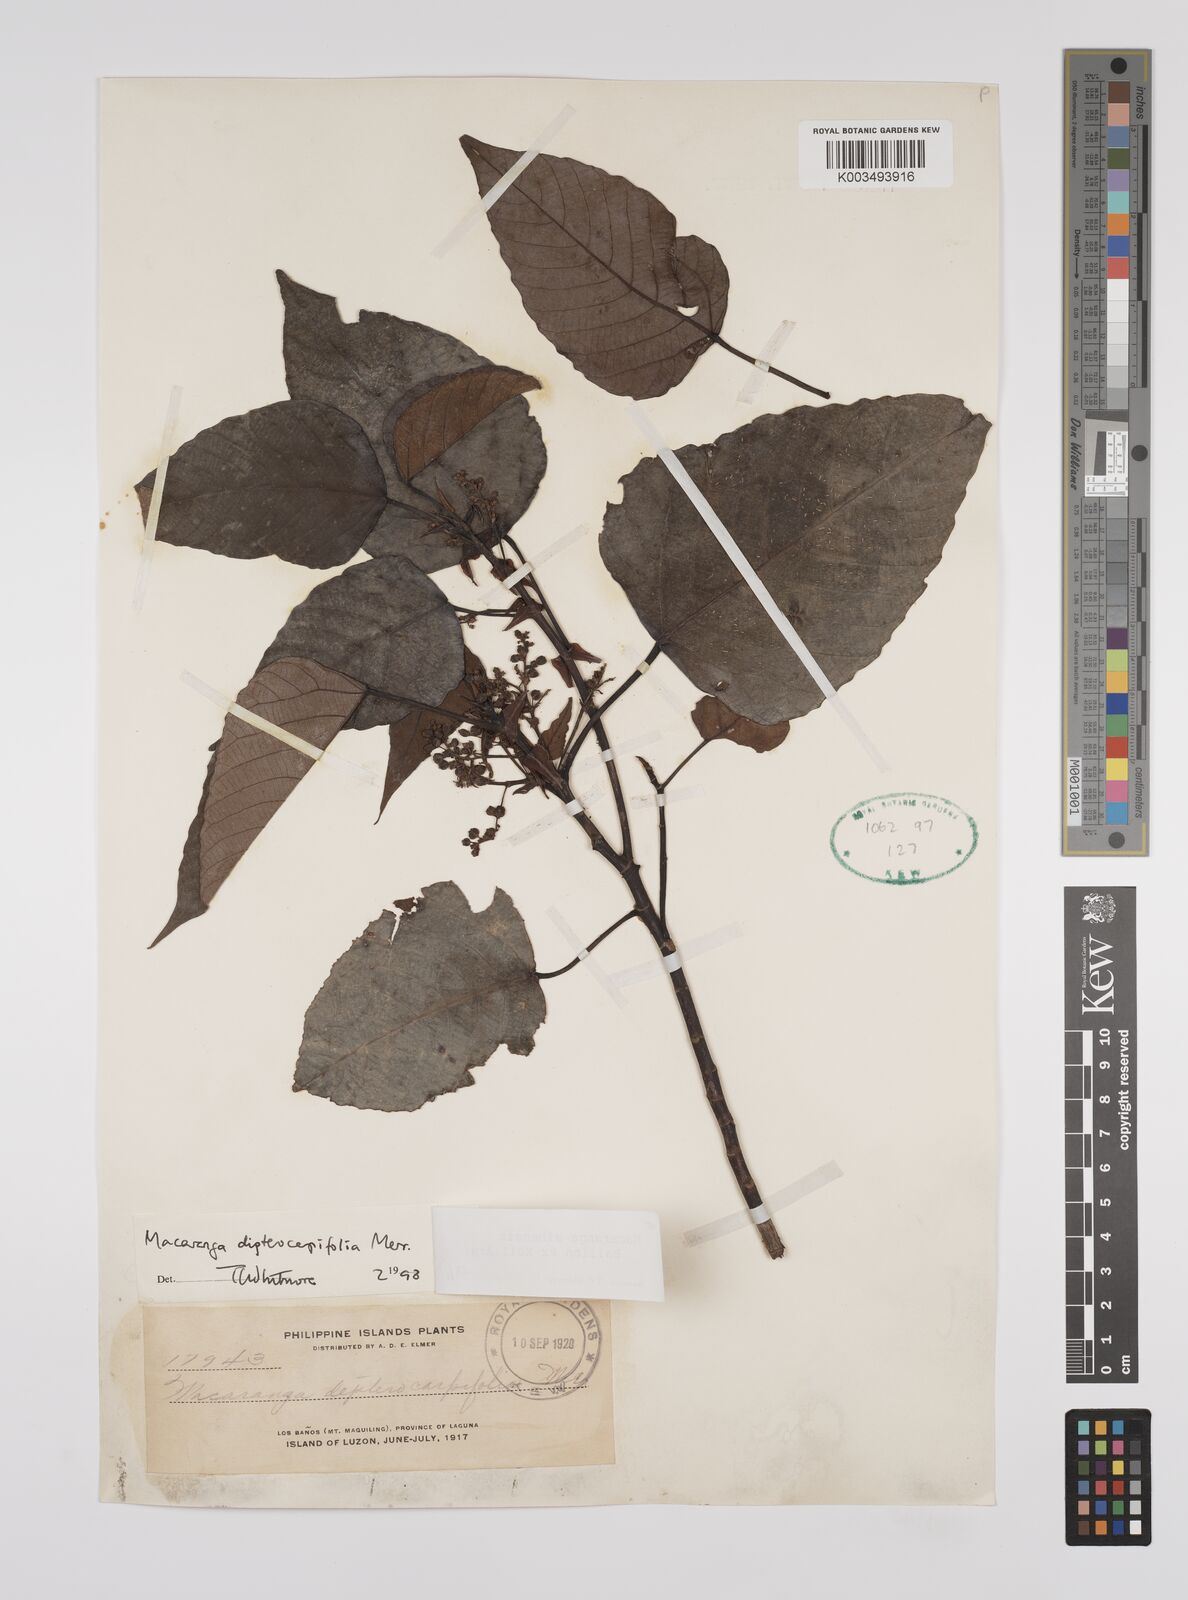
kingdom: Plantae
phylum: Tracheophyta
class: Magnoliopsida
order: Malpighiales
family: Euphorbiaceae
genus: Macaranga
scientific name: Macaranga sinensis
